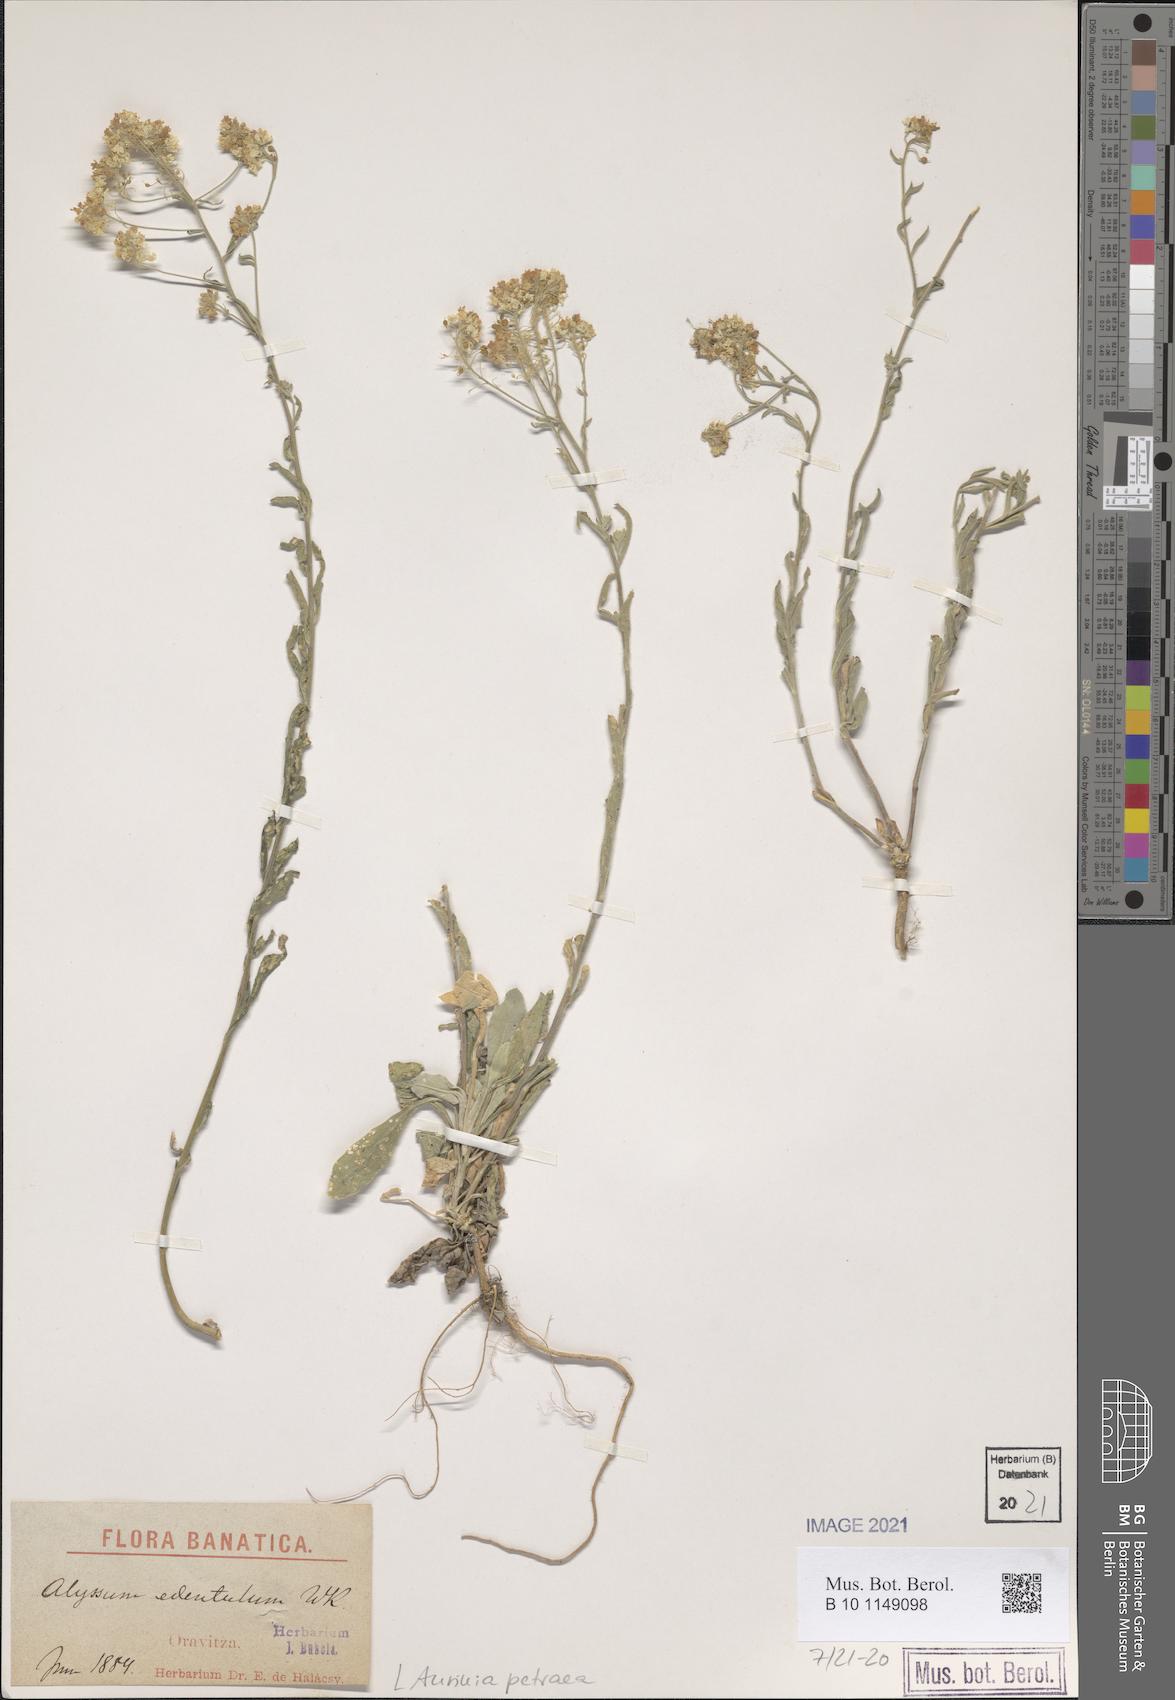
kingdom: Plantae
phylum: Tracheophyta
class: Magnoliopsida
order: Brassicales
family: Brassicaceae
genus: Aurinia
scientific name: Aurinia petraea
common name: Goldentuft
